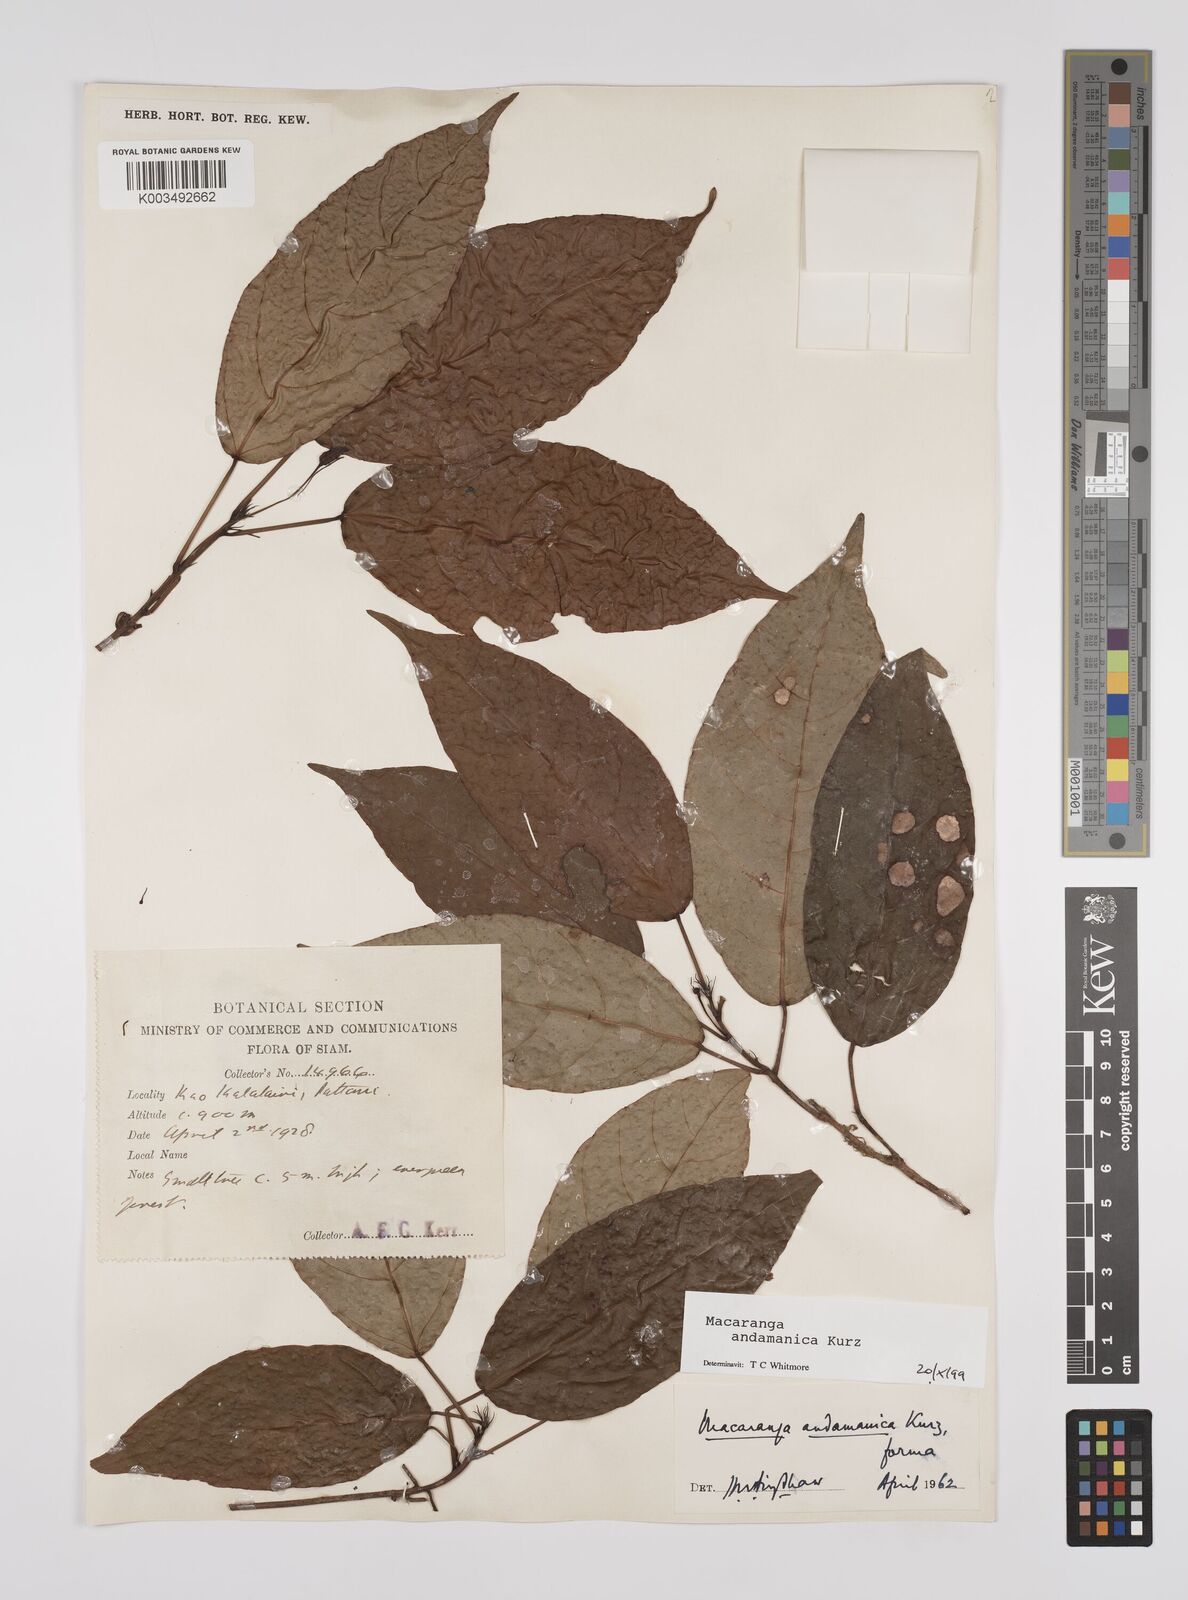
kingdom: Plantae
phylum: Tracheophyta
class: Magnoliopsida
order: Malpighiales
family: Euphorbiaceae
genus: Macaranga
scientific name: Macaranga andamanica
